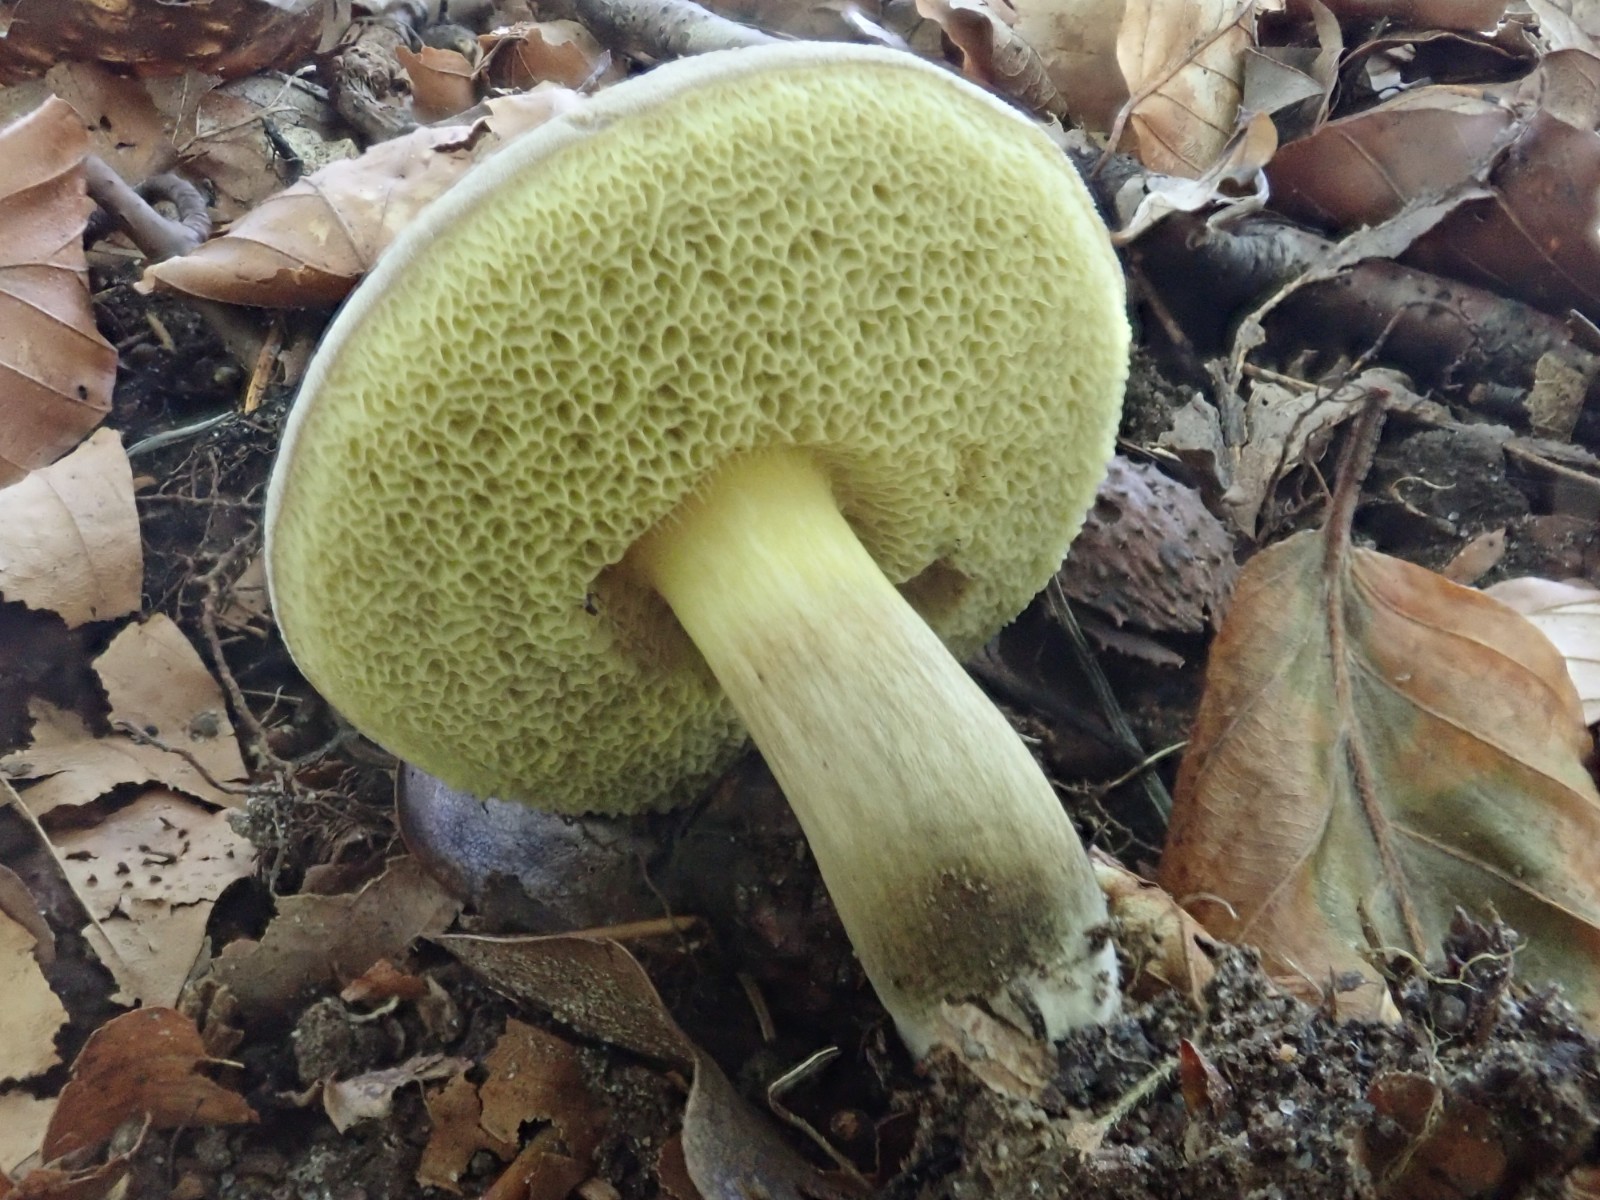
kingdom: Fungi
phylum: Basidiomycota
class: Agaricomycetes
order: Boletales
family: Boletaceae
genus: Xerocomellus
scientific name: Xerocomellus porosporus
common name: hvidsprukken rørhat
